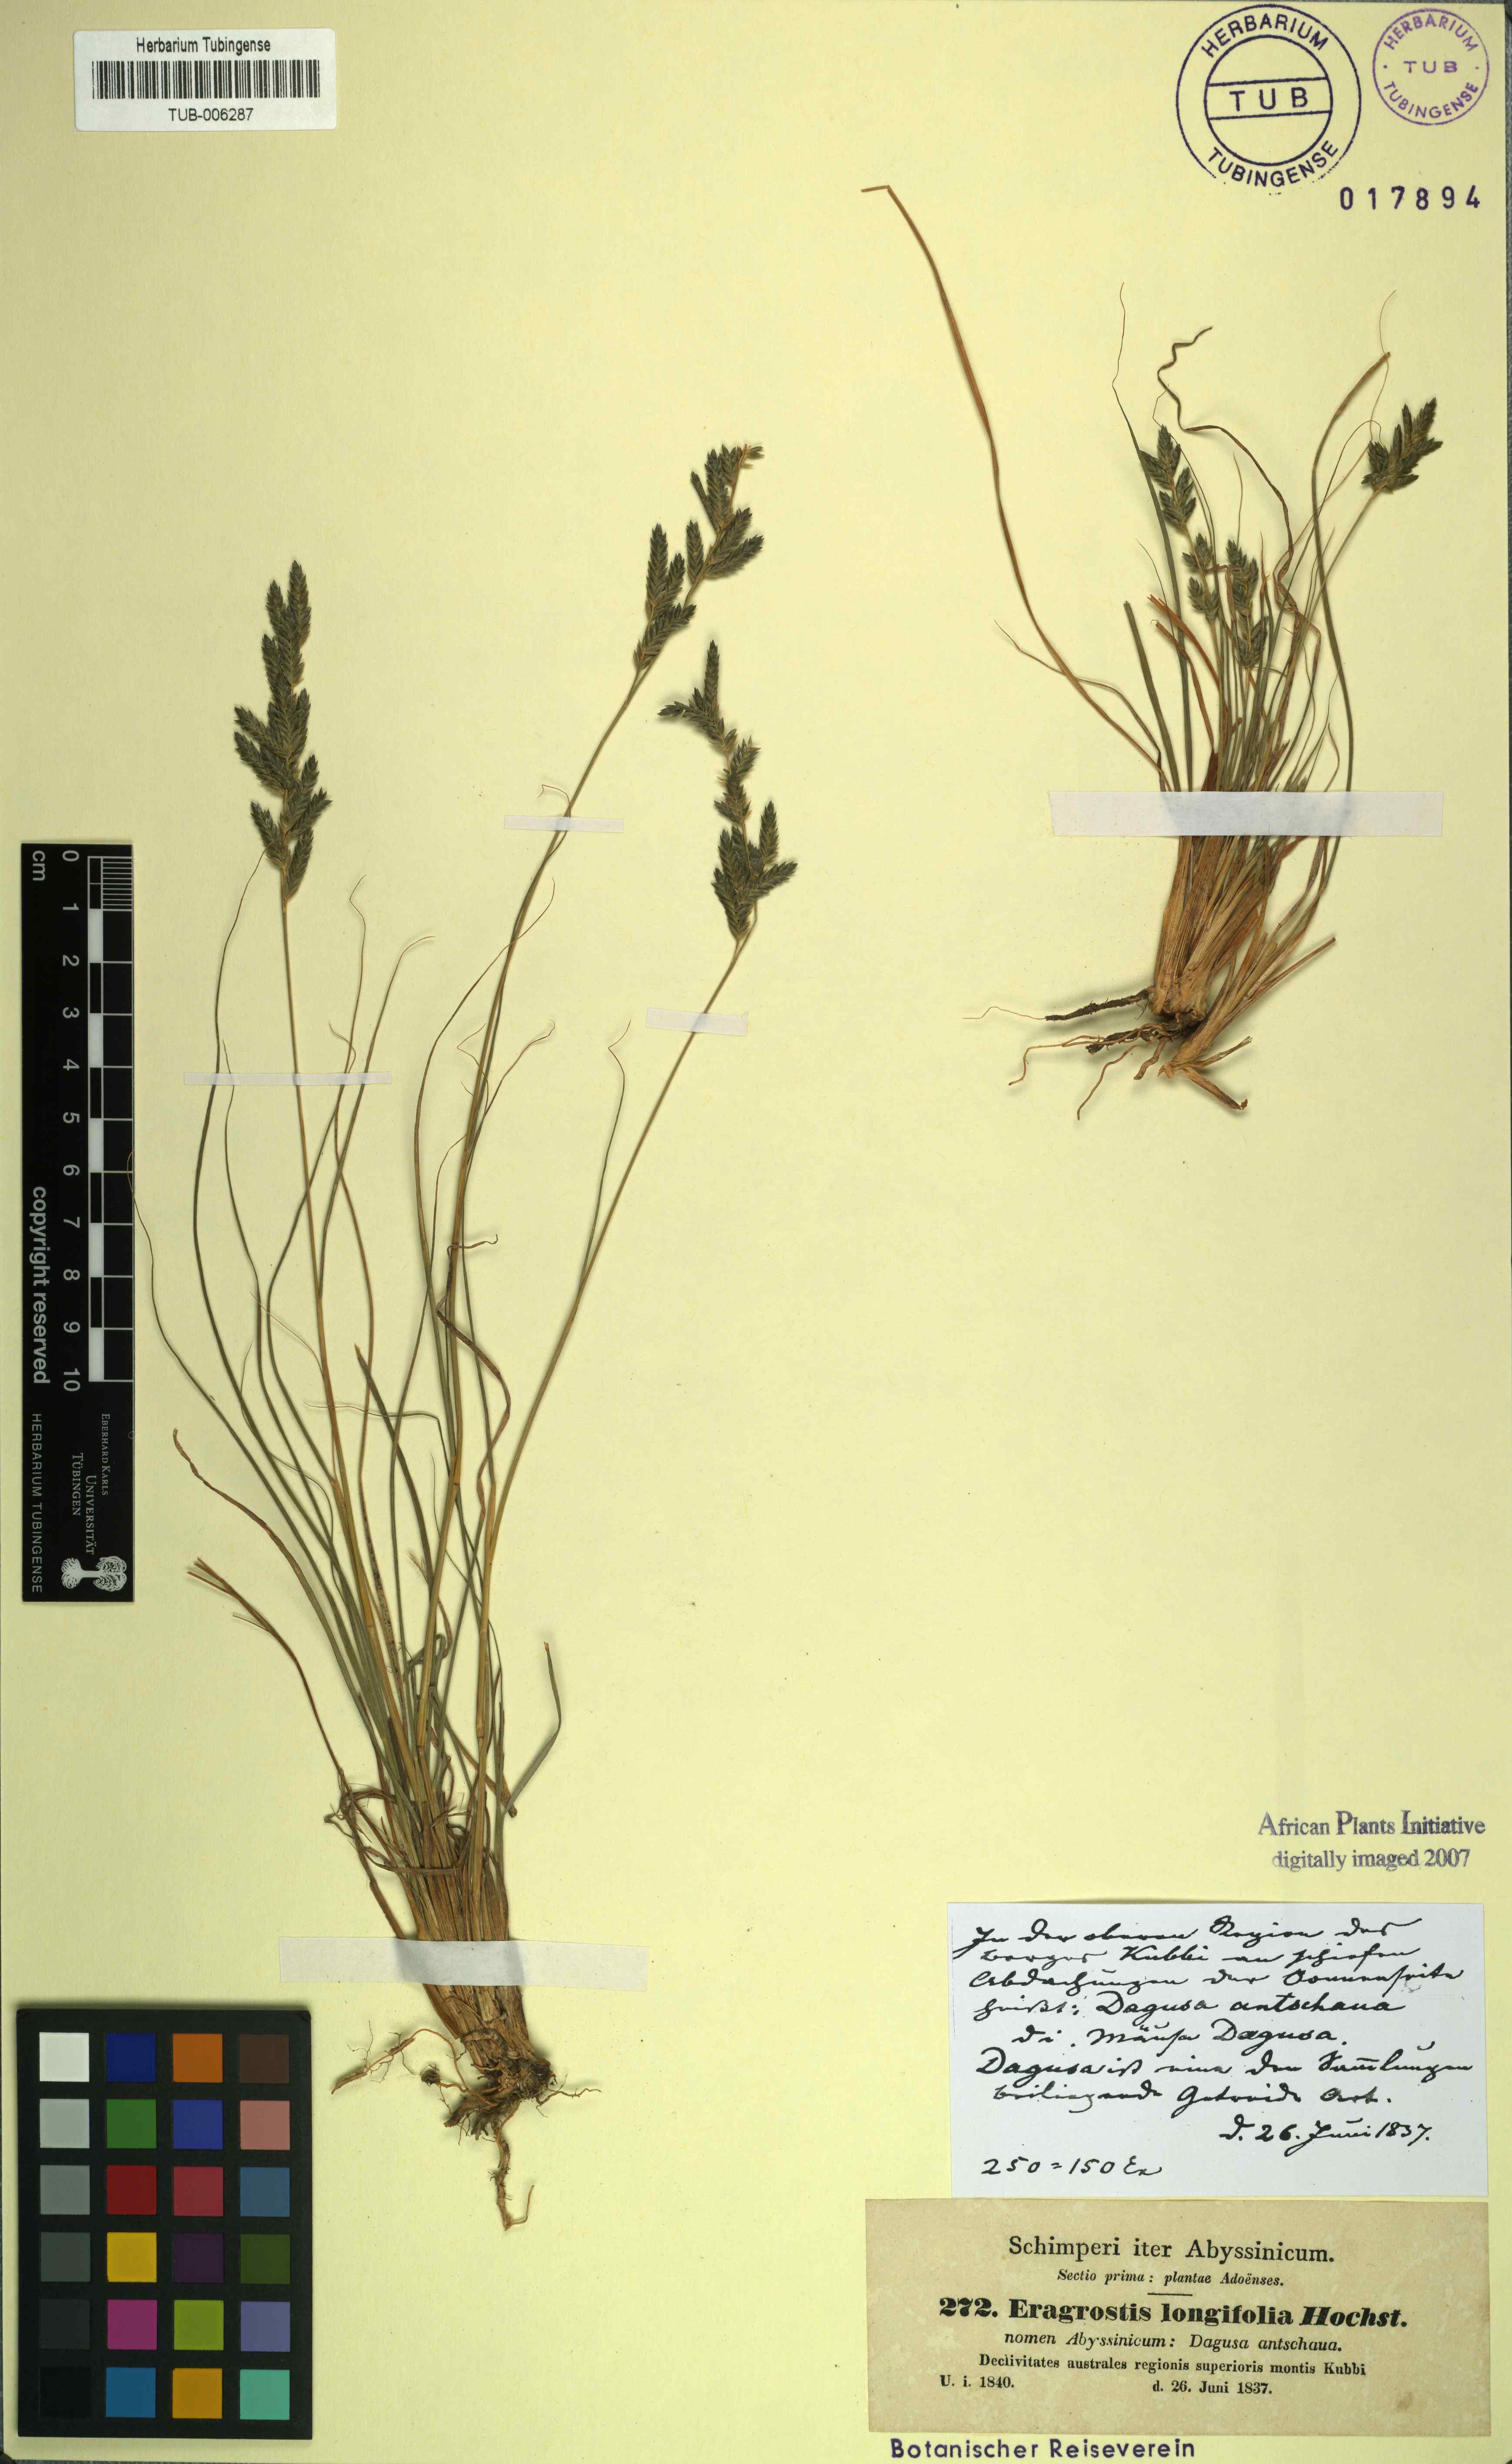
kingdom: Plantae
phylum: Tracheophyta
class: Liliopsida
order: Poales
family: Poaceae
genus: Eragrostis
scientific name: Eragrostis longifolia
